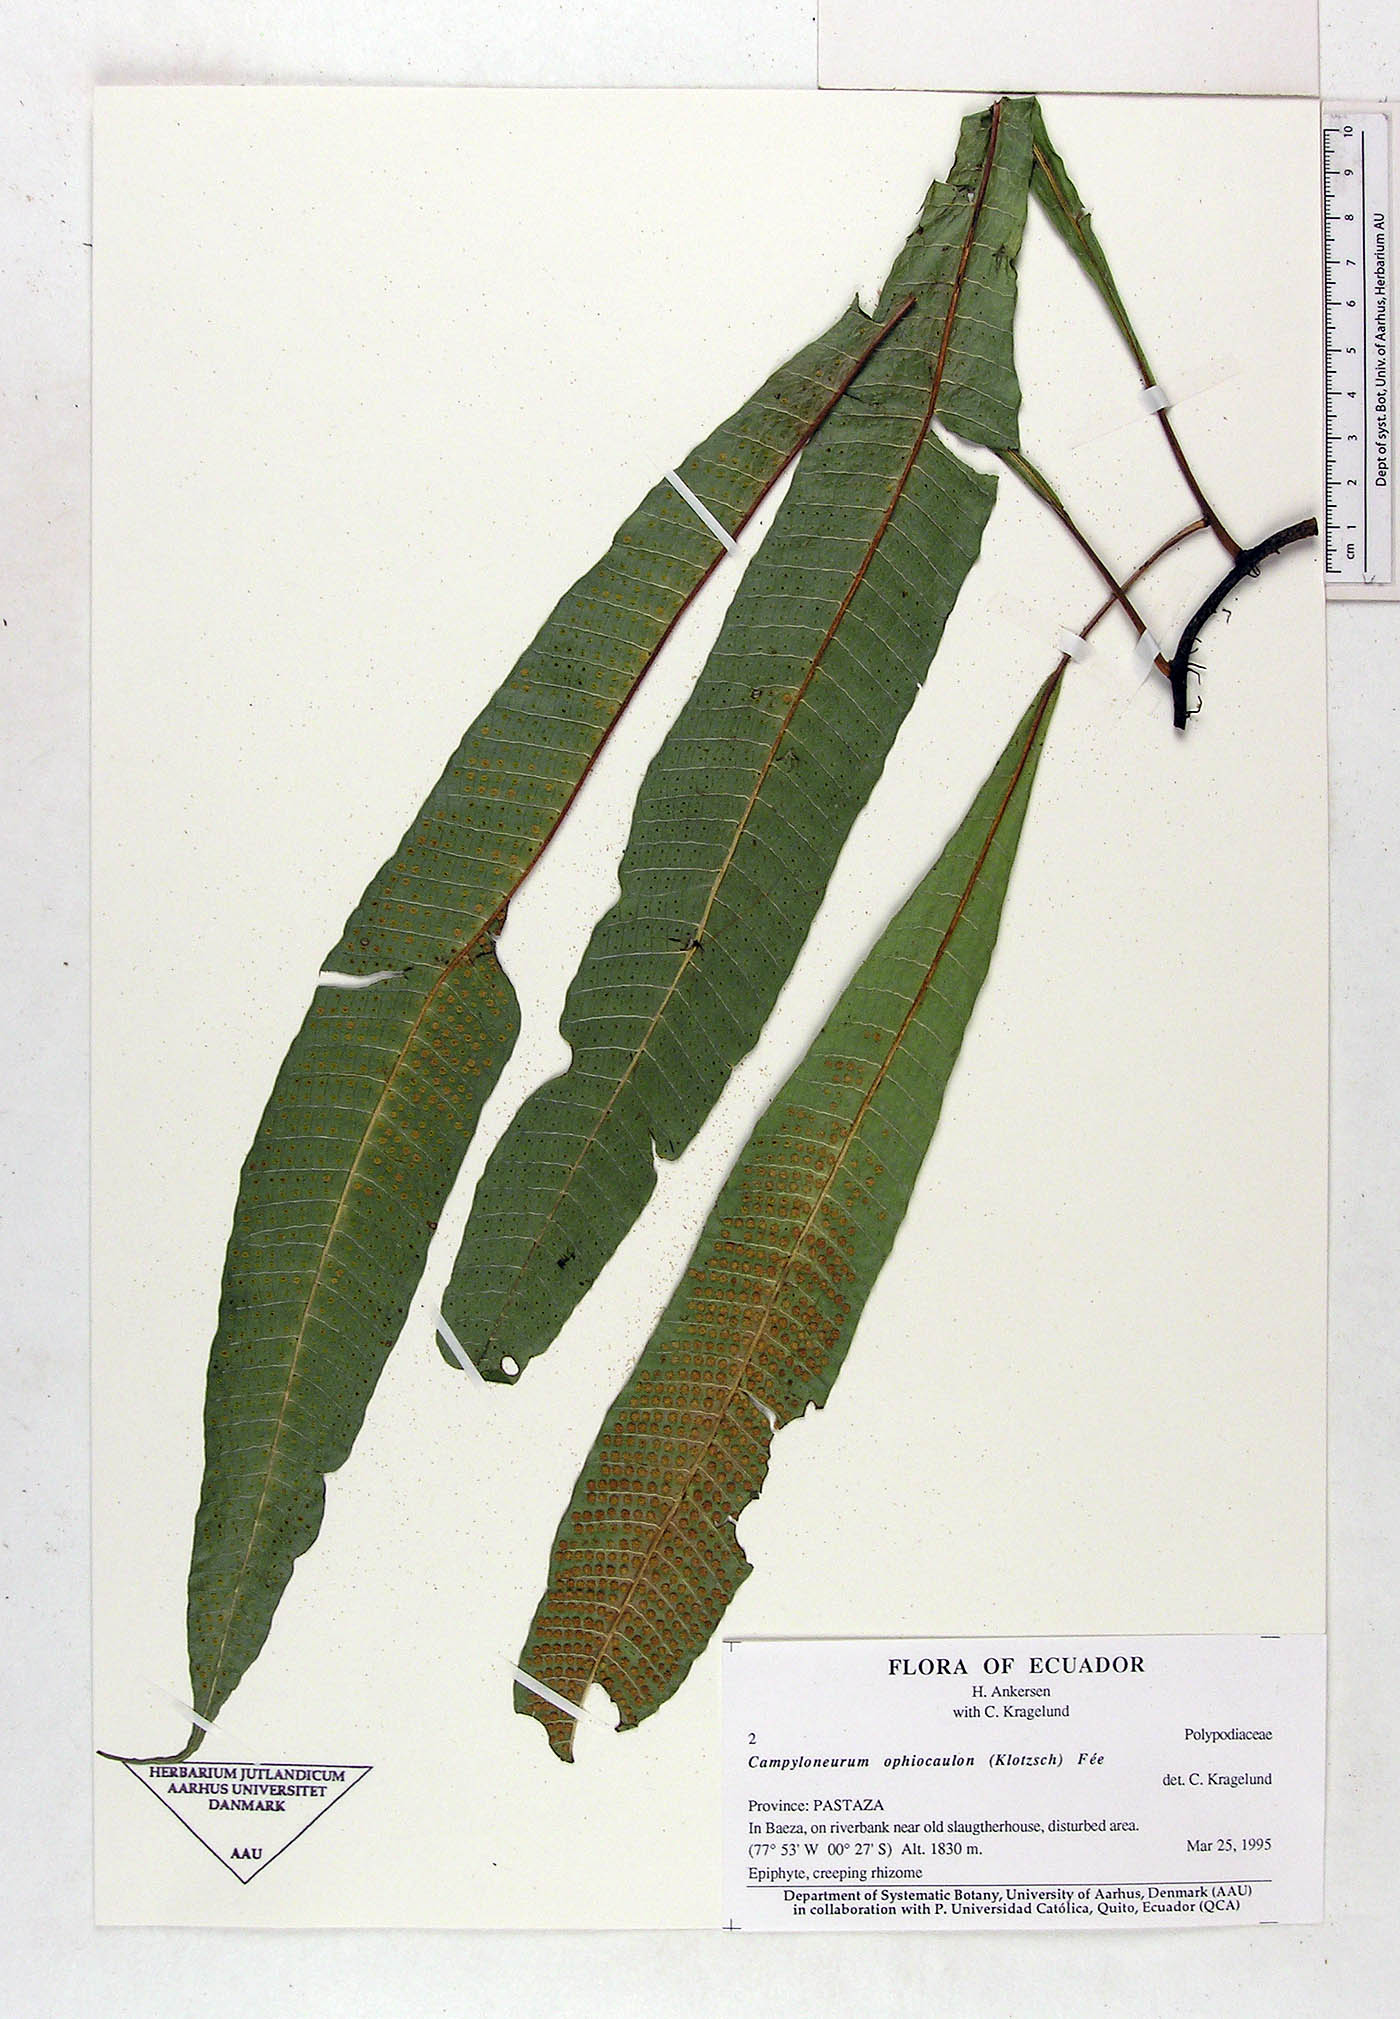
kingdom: Plantae
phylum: Tracheophyta
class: Polypodiopsida
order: Polypodiales
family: Polypodiaceae
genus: Campyloneurum
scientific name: Campyloneurum ophiocaulon
